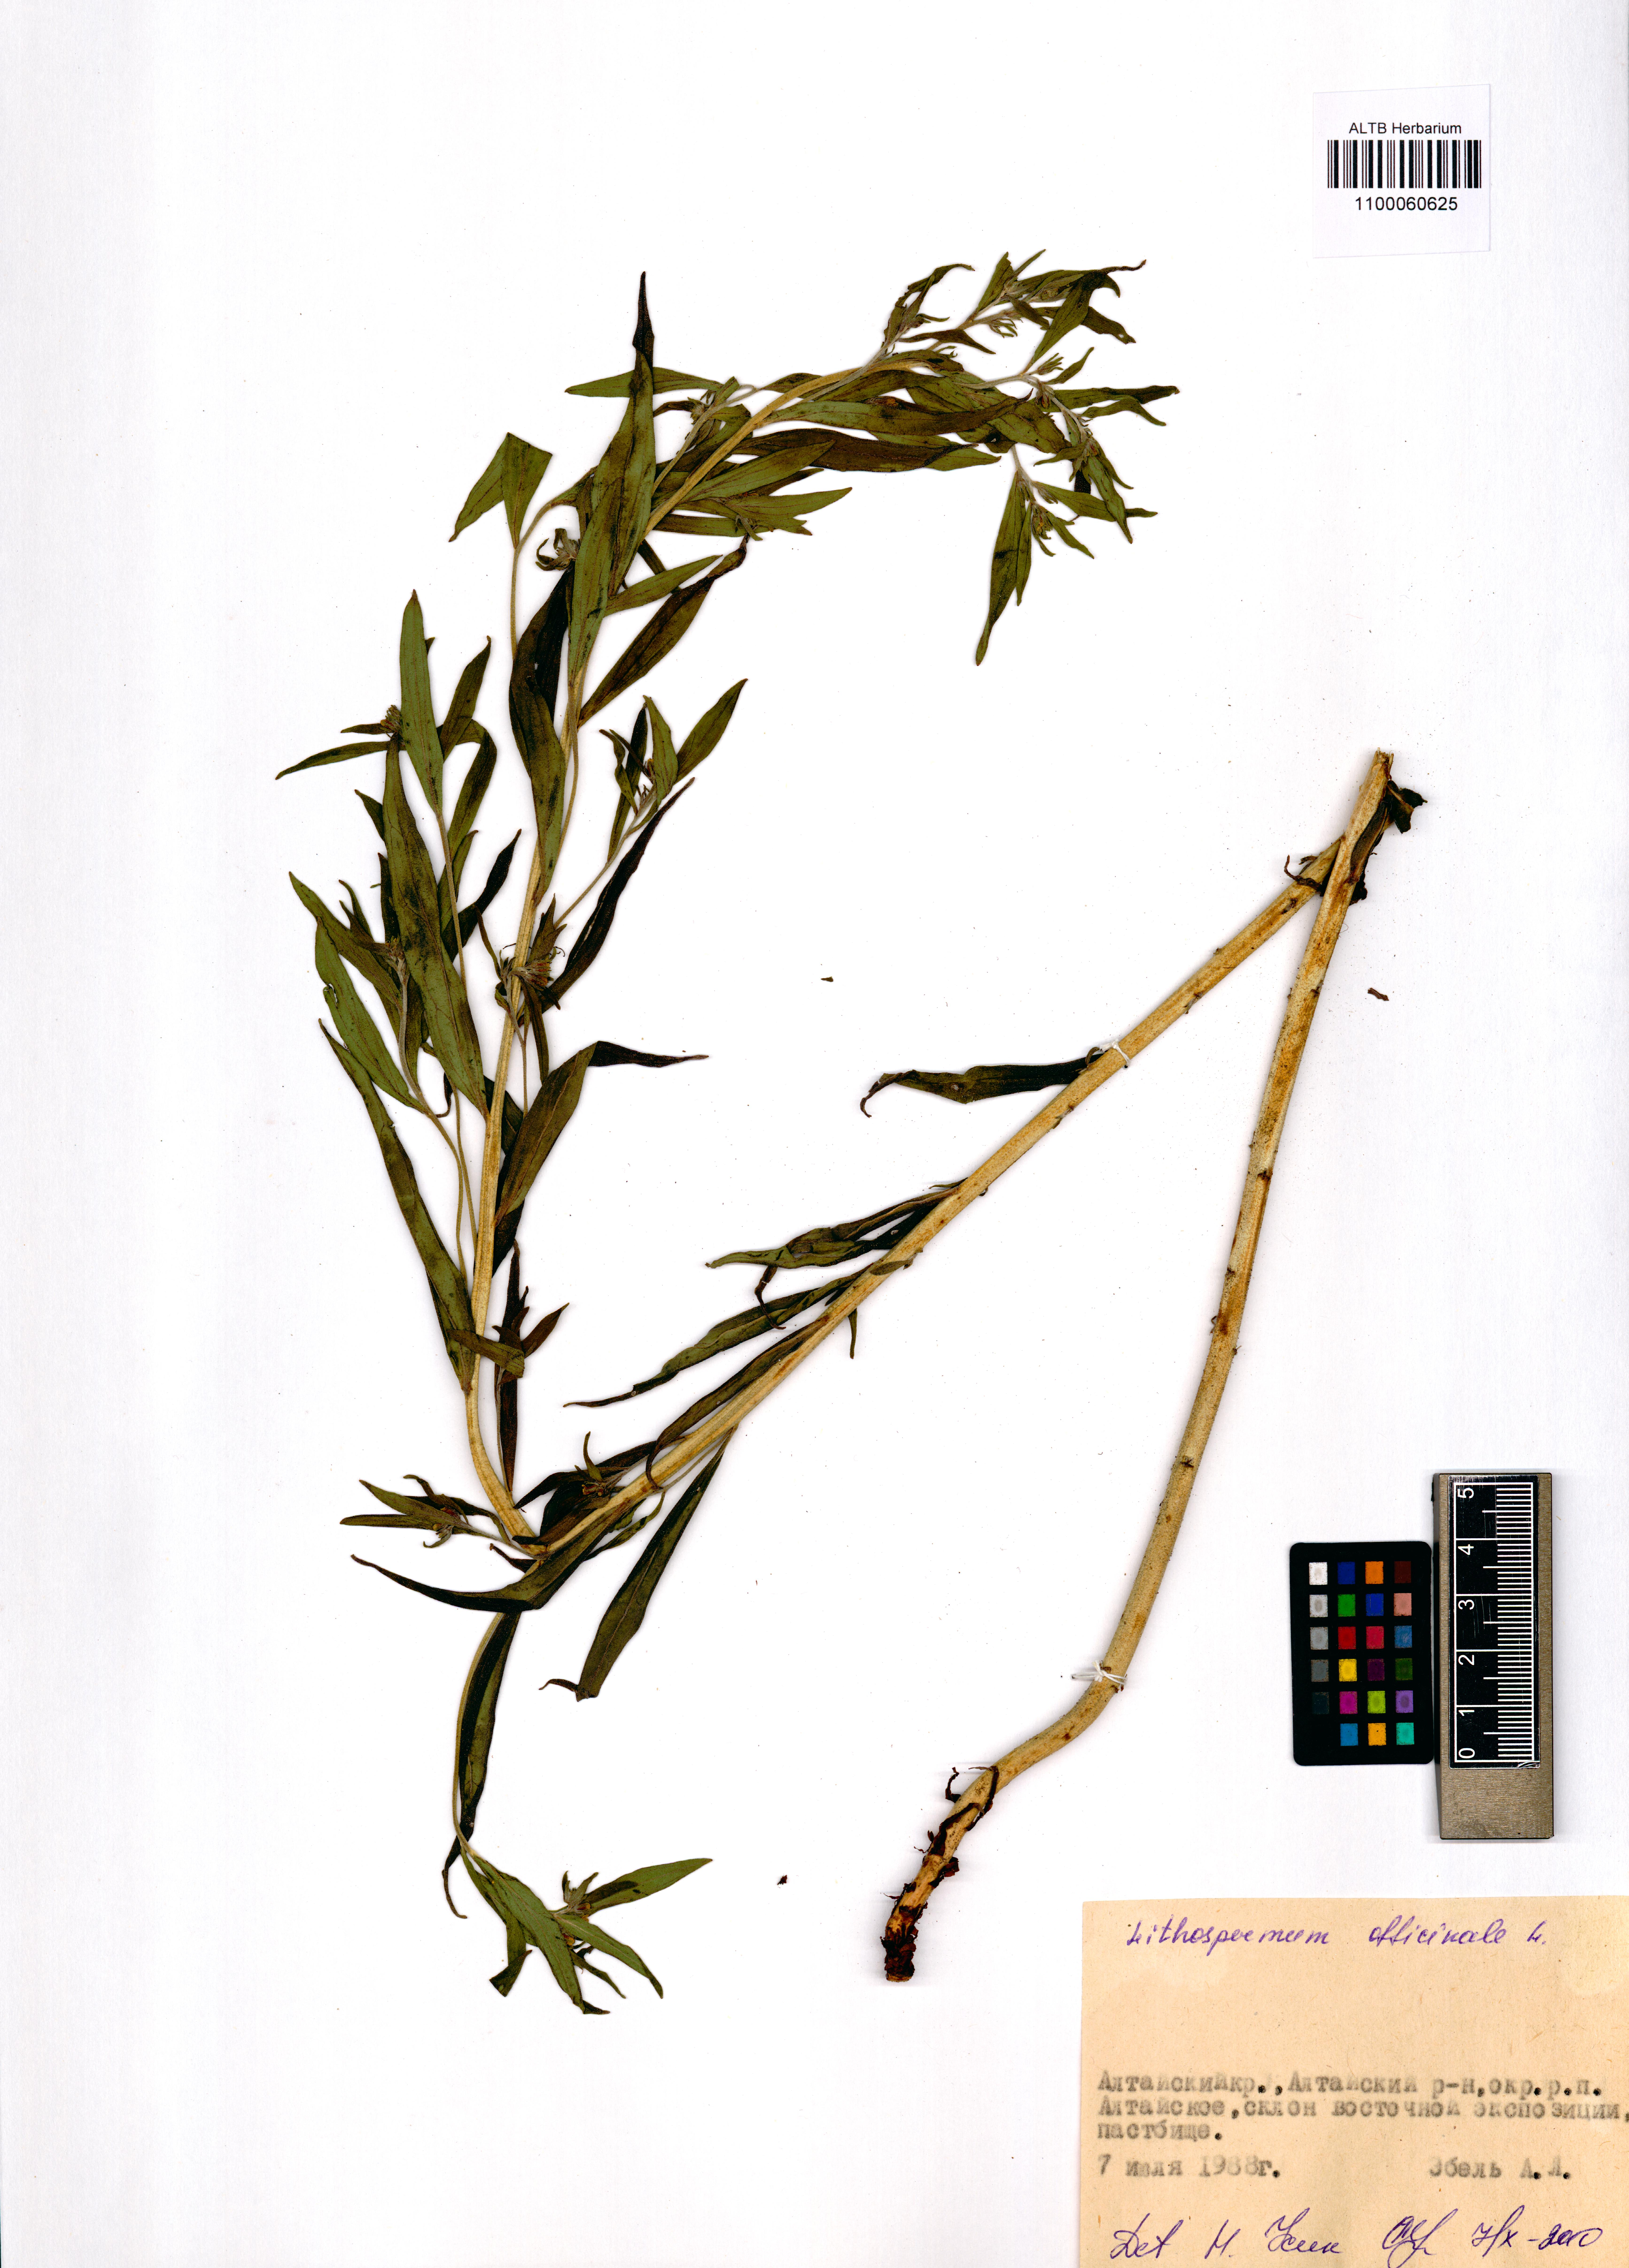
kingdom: Plantae
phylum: Tracheophyta
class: Magnoliopsida
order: Boraginales
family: Boraginaceae
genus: Lithospermum
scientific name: Lithospermum officinale
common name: Common gromwell
